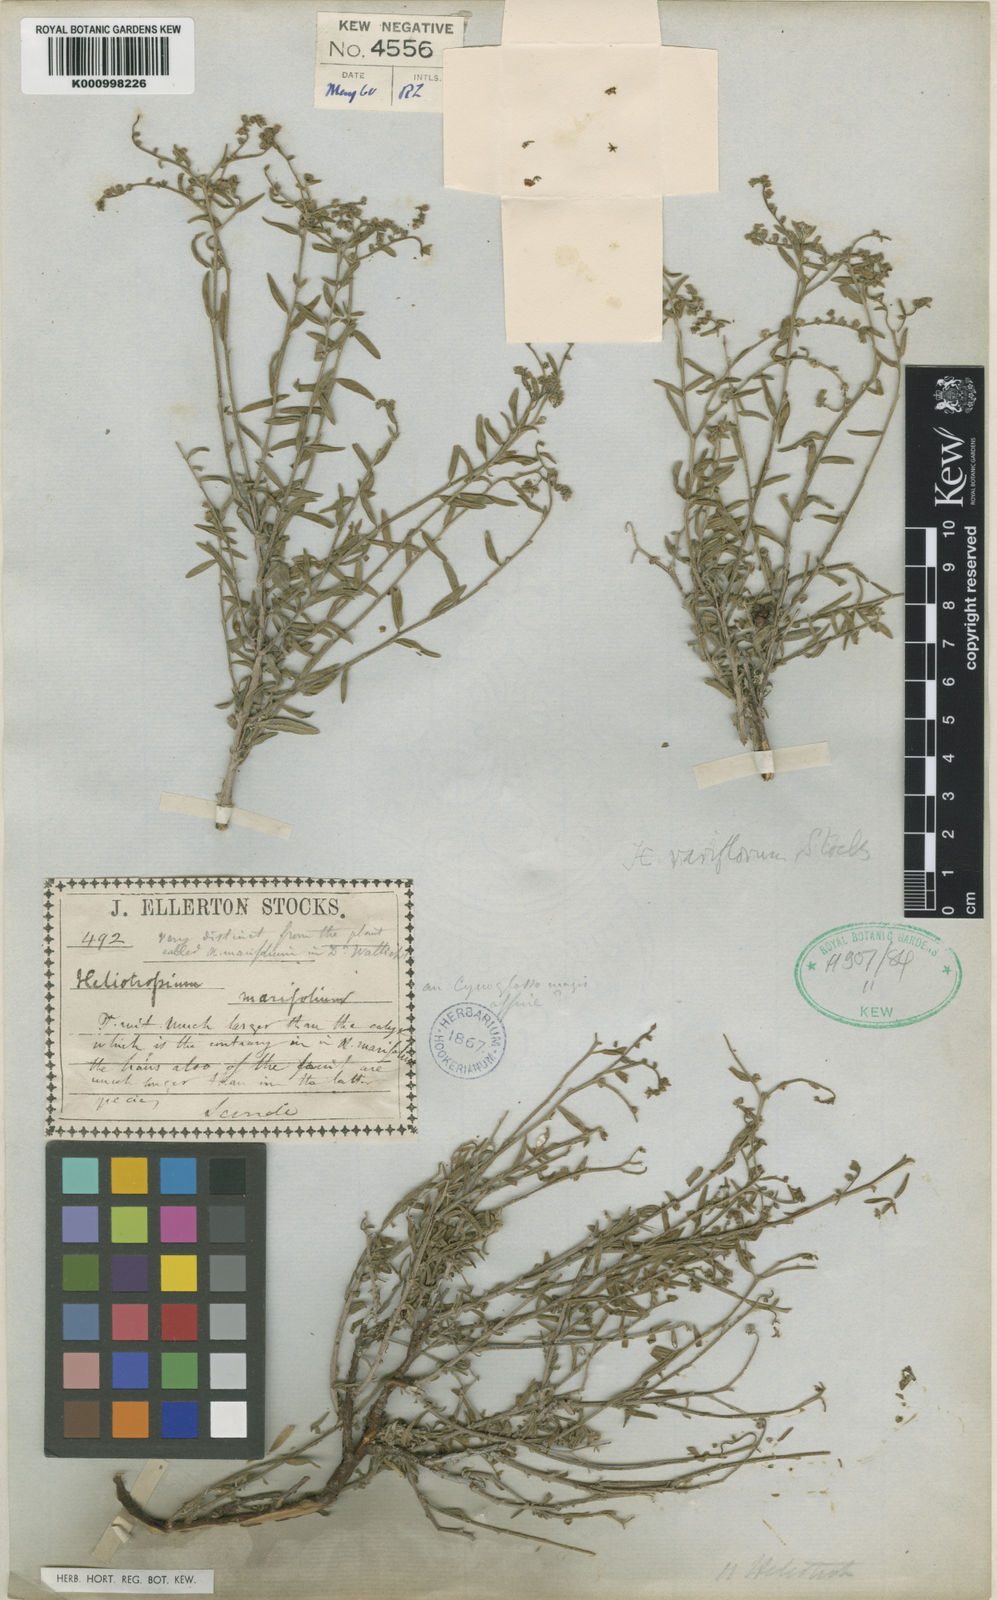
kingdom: Plantae
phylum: Tracheophyta
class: Magnoliopsida
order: Boraginales
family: Heliotropiaceae
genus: Euploca
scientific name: Euploca rariflora
